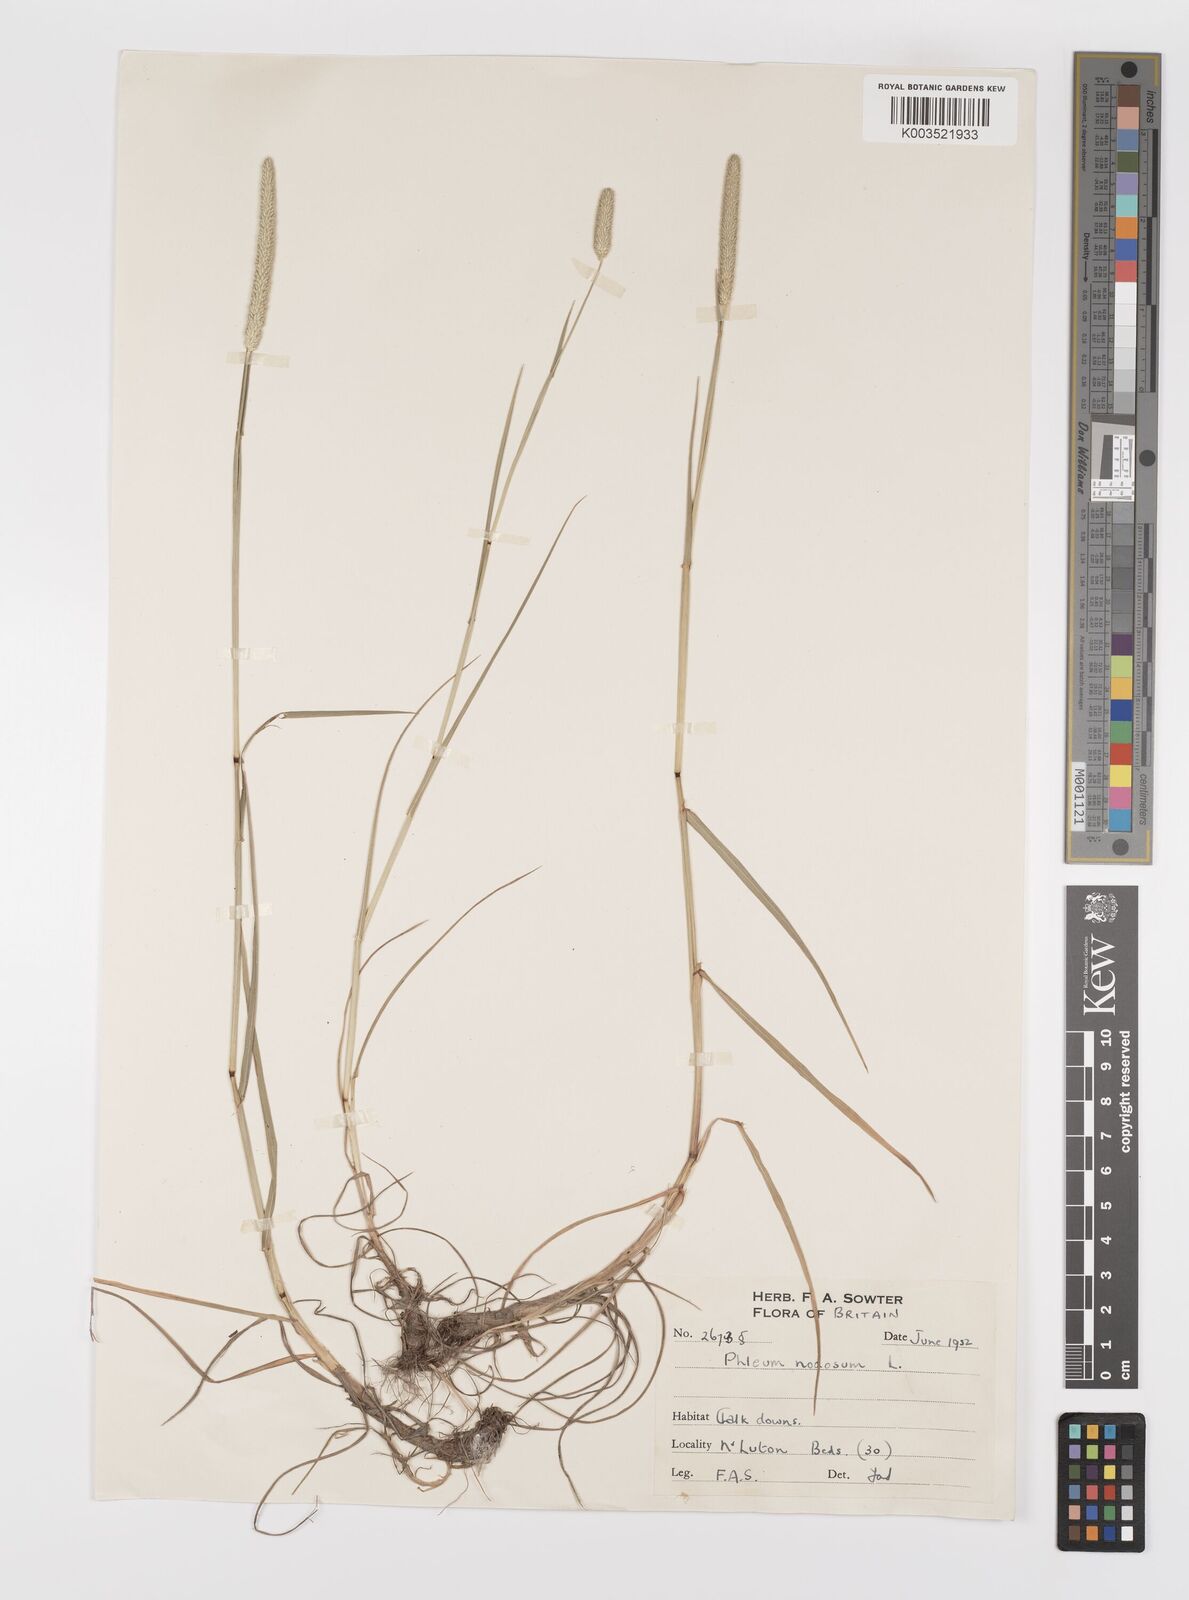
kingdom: Plantae
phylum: Tracheophyta
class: Liliopsida
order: Poales
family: Poaceae
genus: Phleum
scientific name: Phleum bertolonii
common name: Smaller cat's-tail
